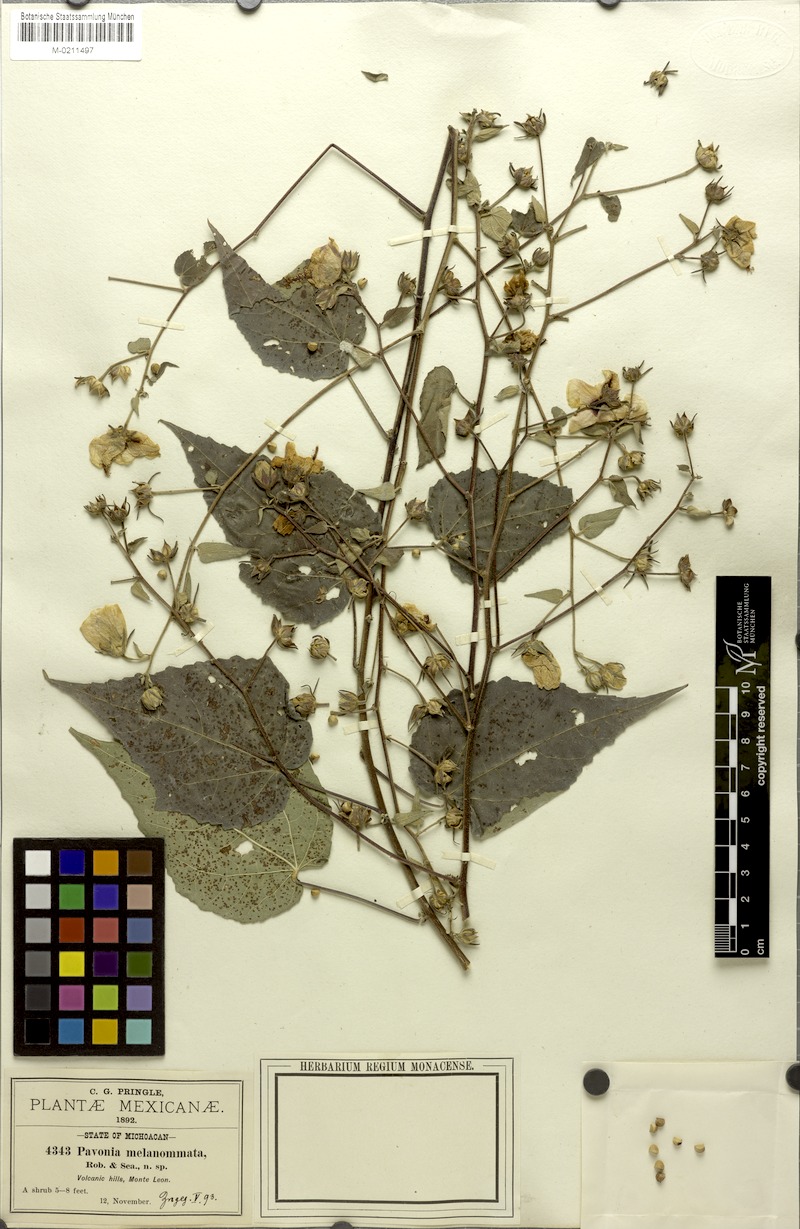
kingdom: Plantae
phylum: Tracheophyta
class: Magnoliopsida
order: Malvales
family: Malvaceae
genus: Pavonia
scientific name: Pavonia oxyphylla
